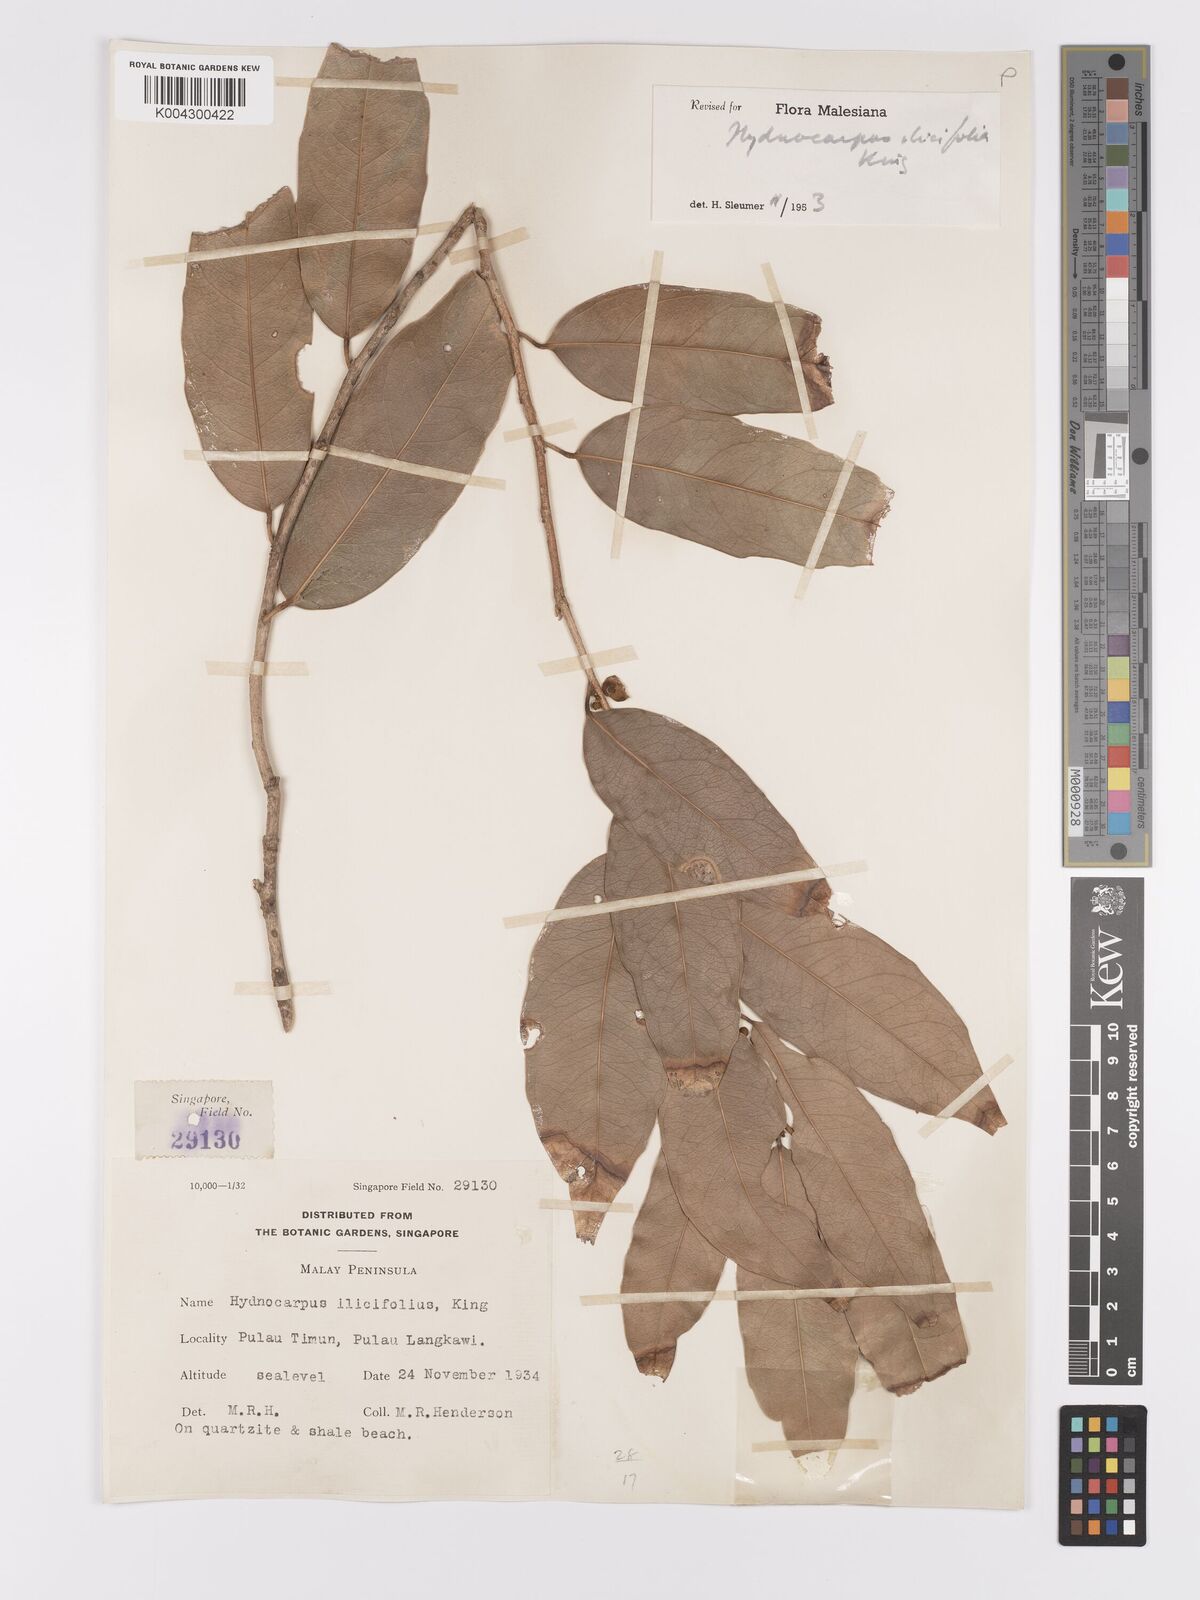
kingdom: Plantae
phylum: Tracheophyta
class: Magnoliopsida
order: Malpighiales
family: Achariaceae
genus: Hydnocarpus
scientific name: Hydnocarpus ilicifolius
